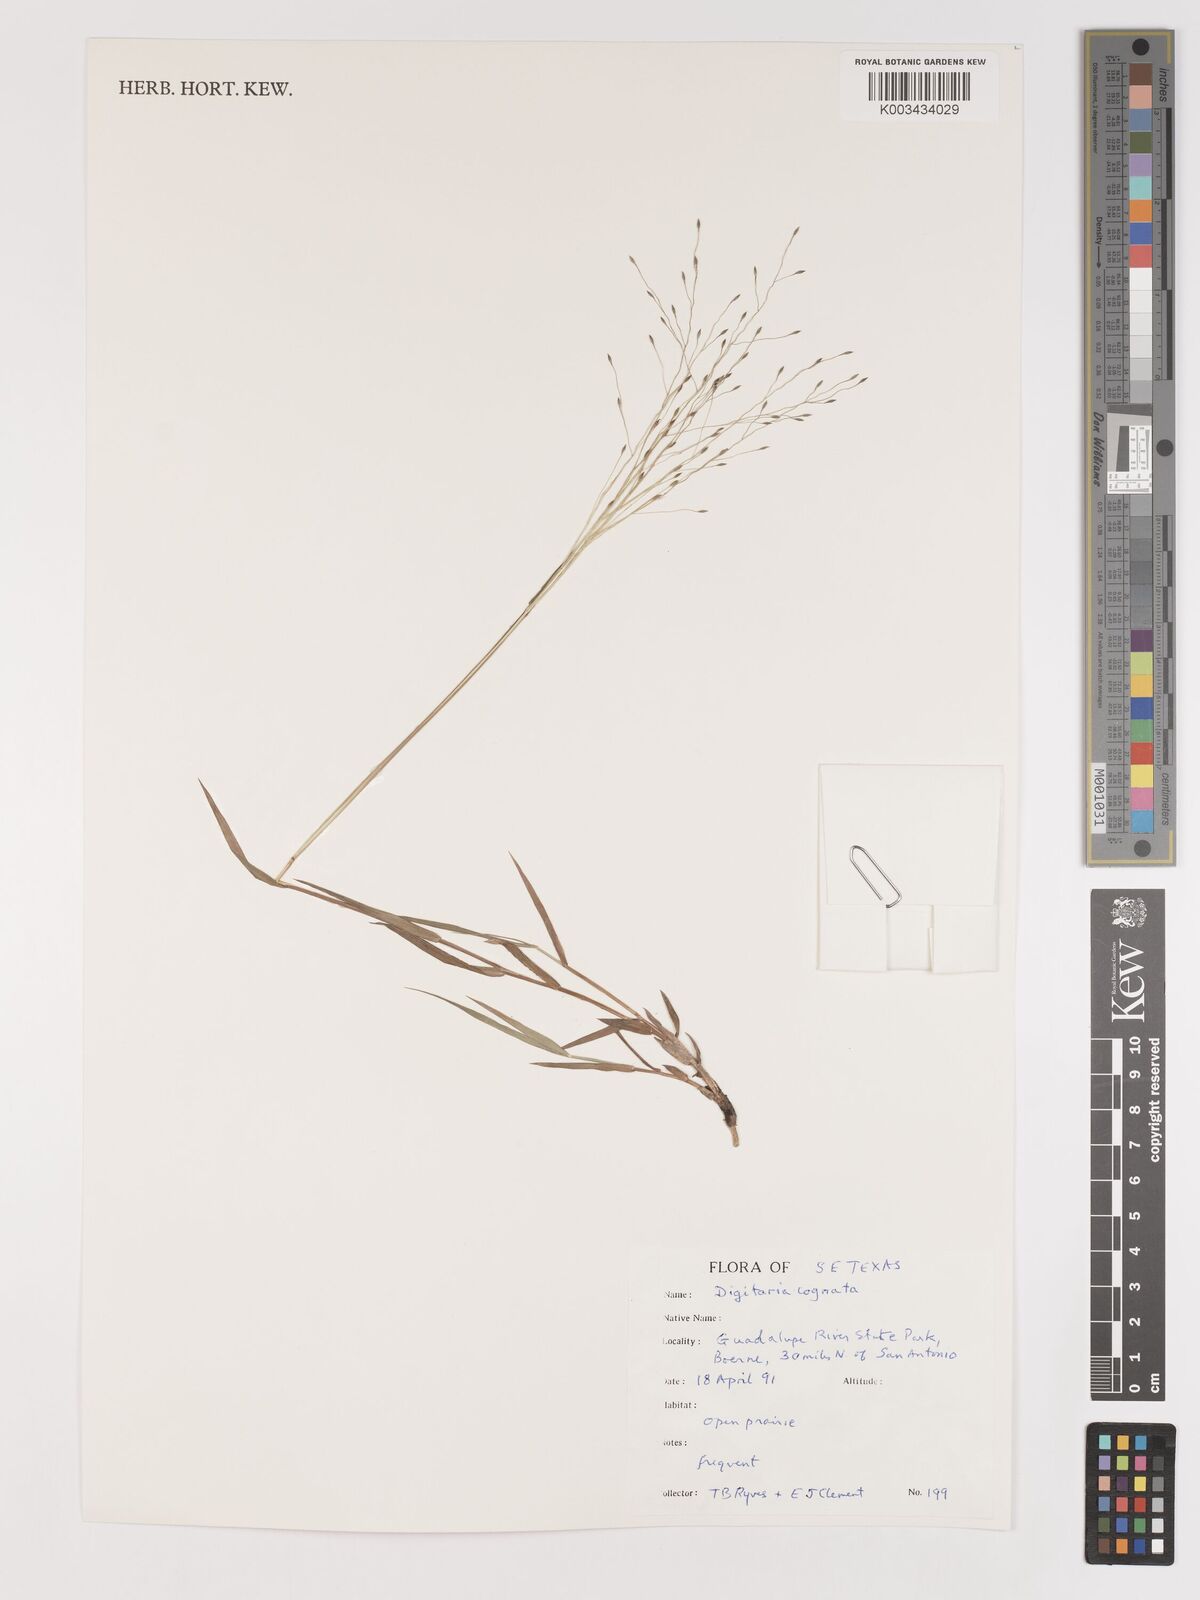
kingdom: Plantae
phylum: Tracheophyta
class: Liliopsida
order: Poales
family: Poaceae
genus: Digitaria
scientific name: Digitaria cognata
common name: Fall witchgrass
